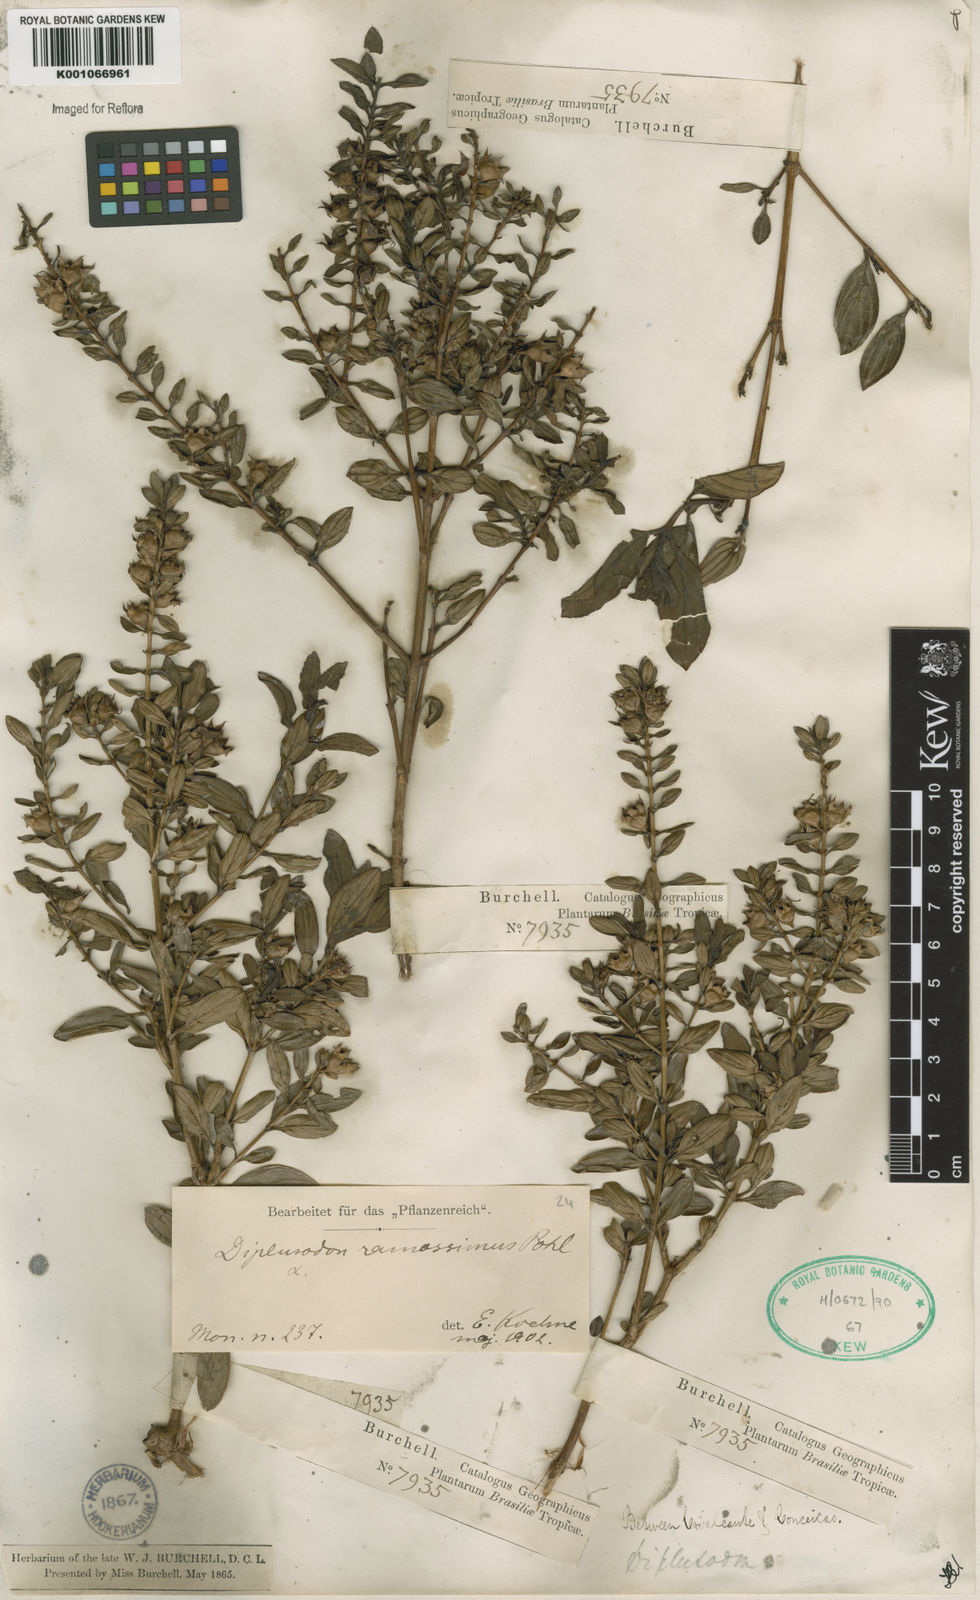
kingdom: Plantae
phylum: Tracheophyta
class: Magnoliopsida
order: Myrtales
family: Lythraceae
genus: Diplusodon
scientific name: Diplusodon ramosissimus
